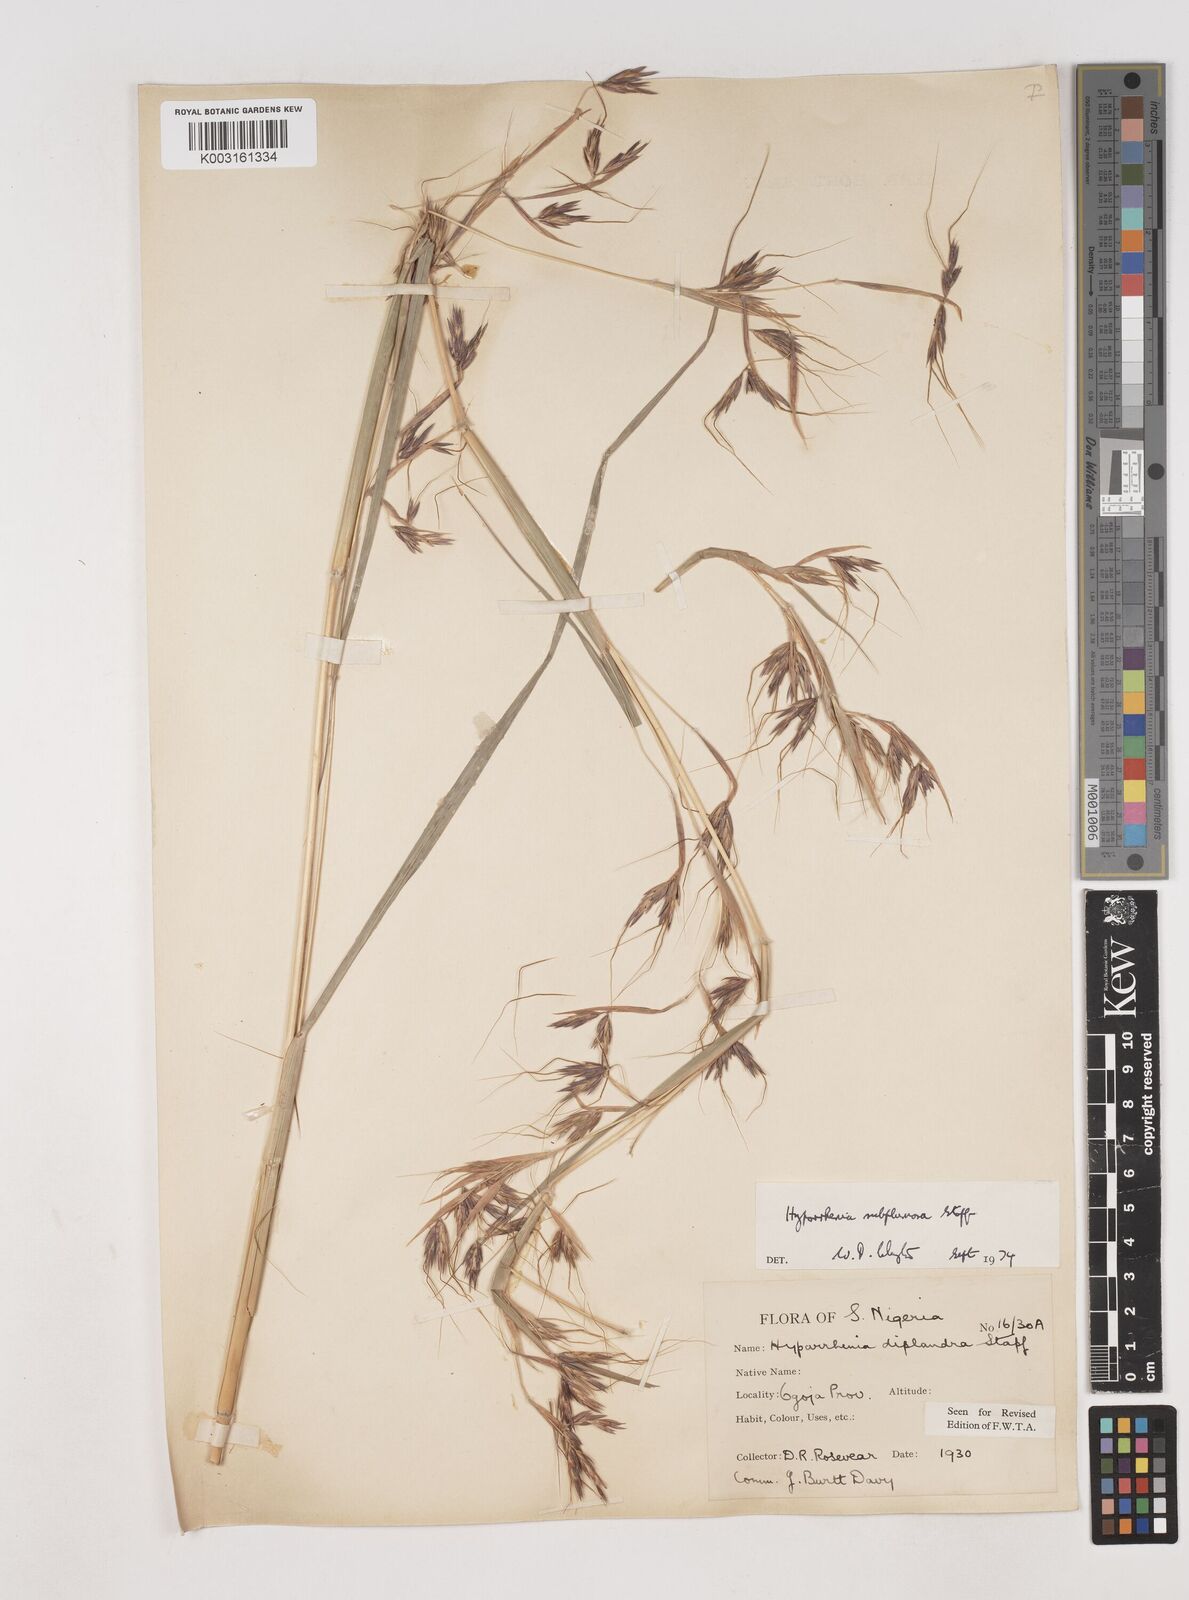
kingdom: Plantae
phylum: Tracheophyta
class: Liliopsida
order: Poales
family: Poaceae
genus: Hyparrhenia
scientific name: Hyparrhenia subplumosa
